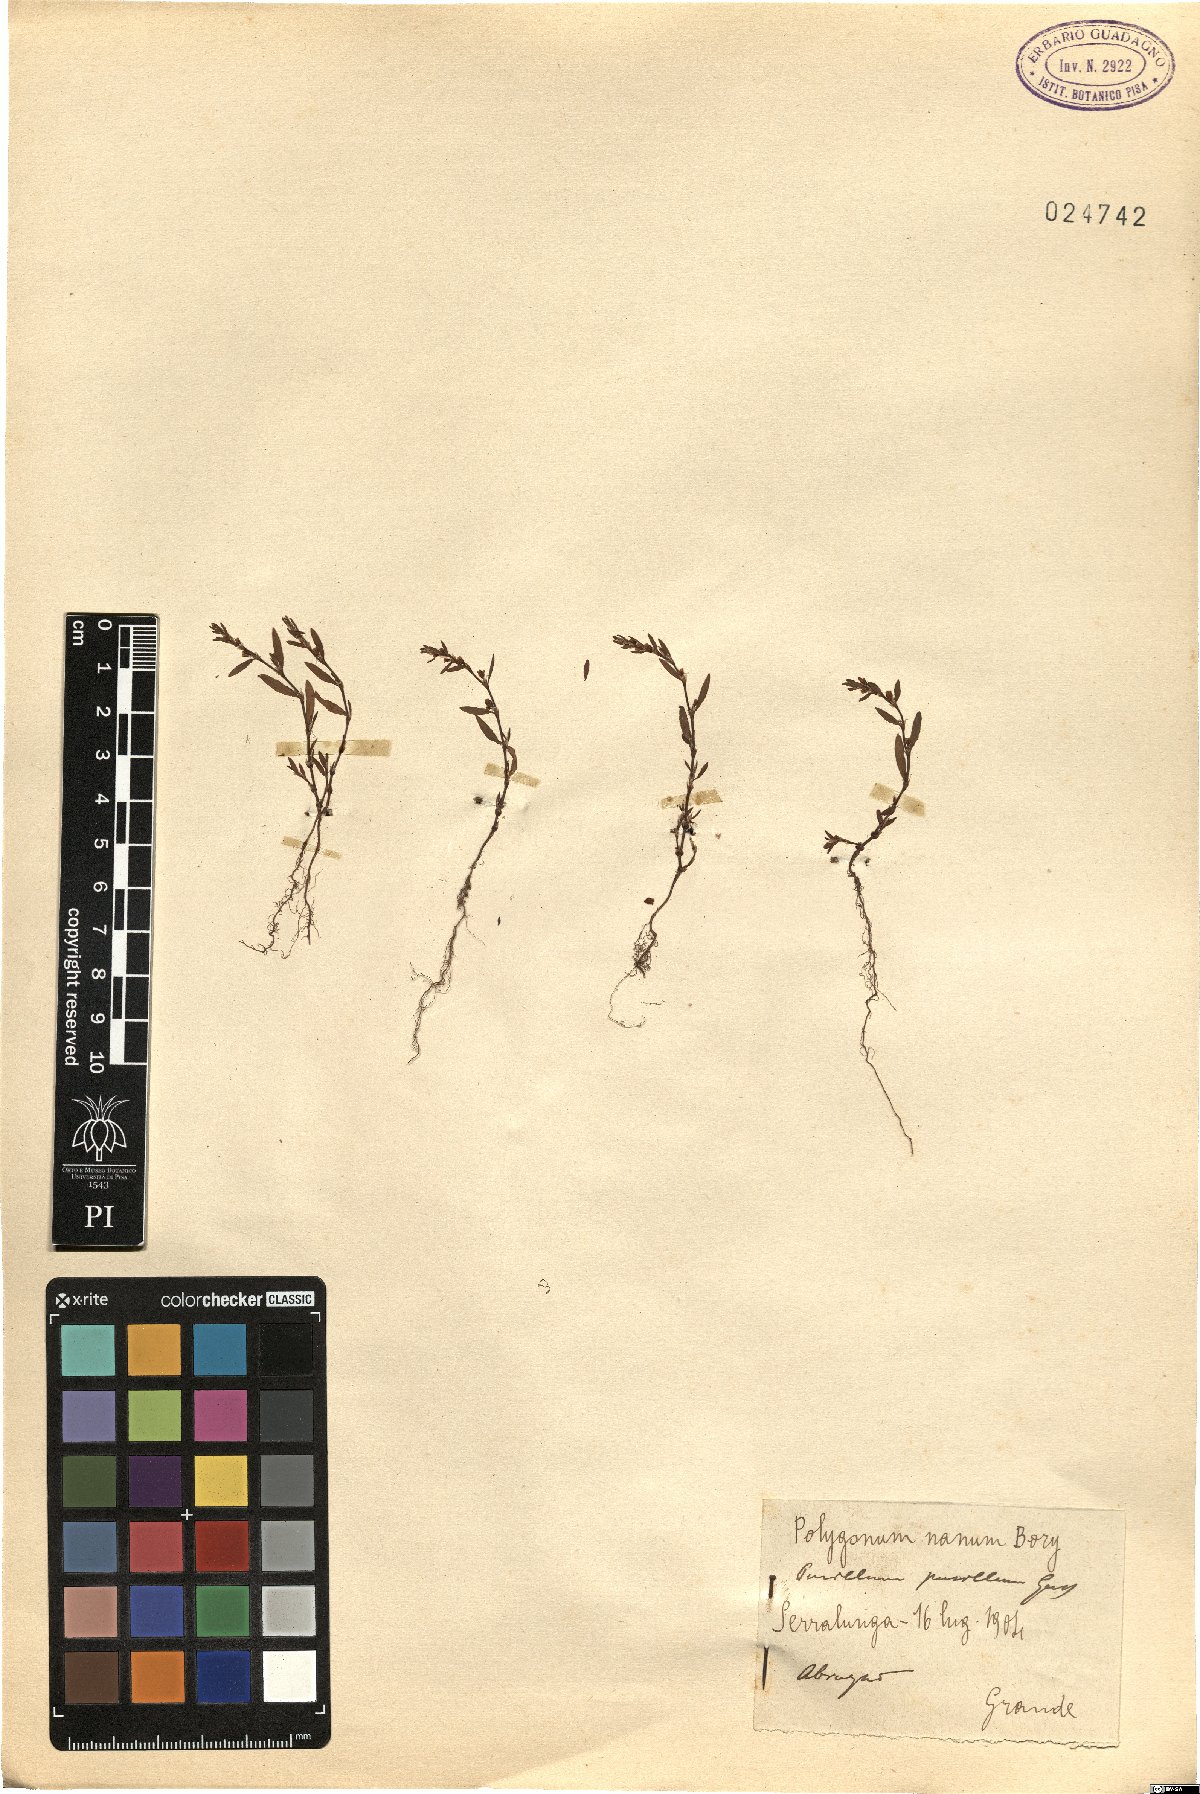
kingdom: Plantae
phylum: Tracheophyta
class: Magnoliopsida
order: Caryophyllales
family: Polygonaceae
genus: Polygonum
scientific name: Polygonum aviculare
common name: Prostrate knotweed
